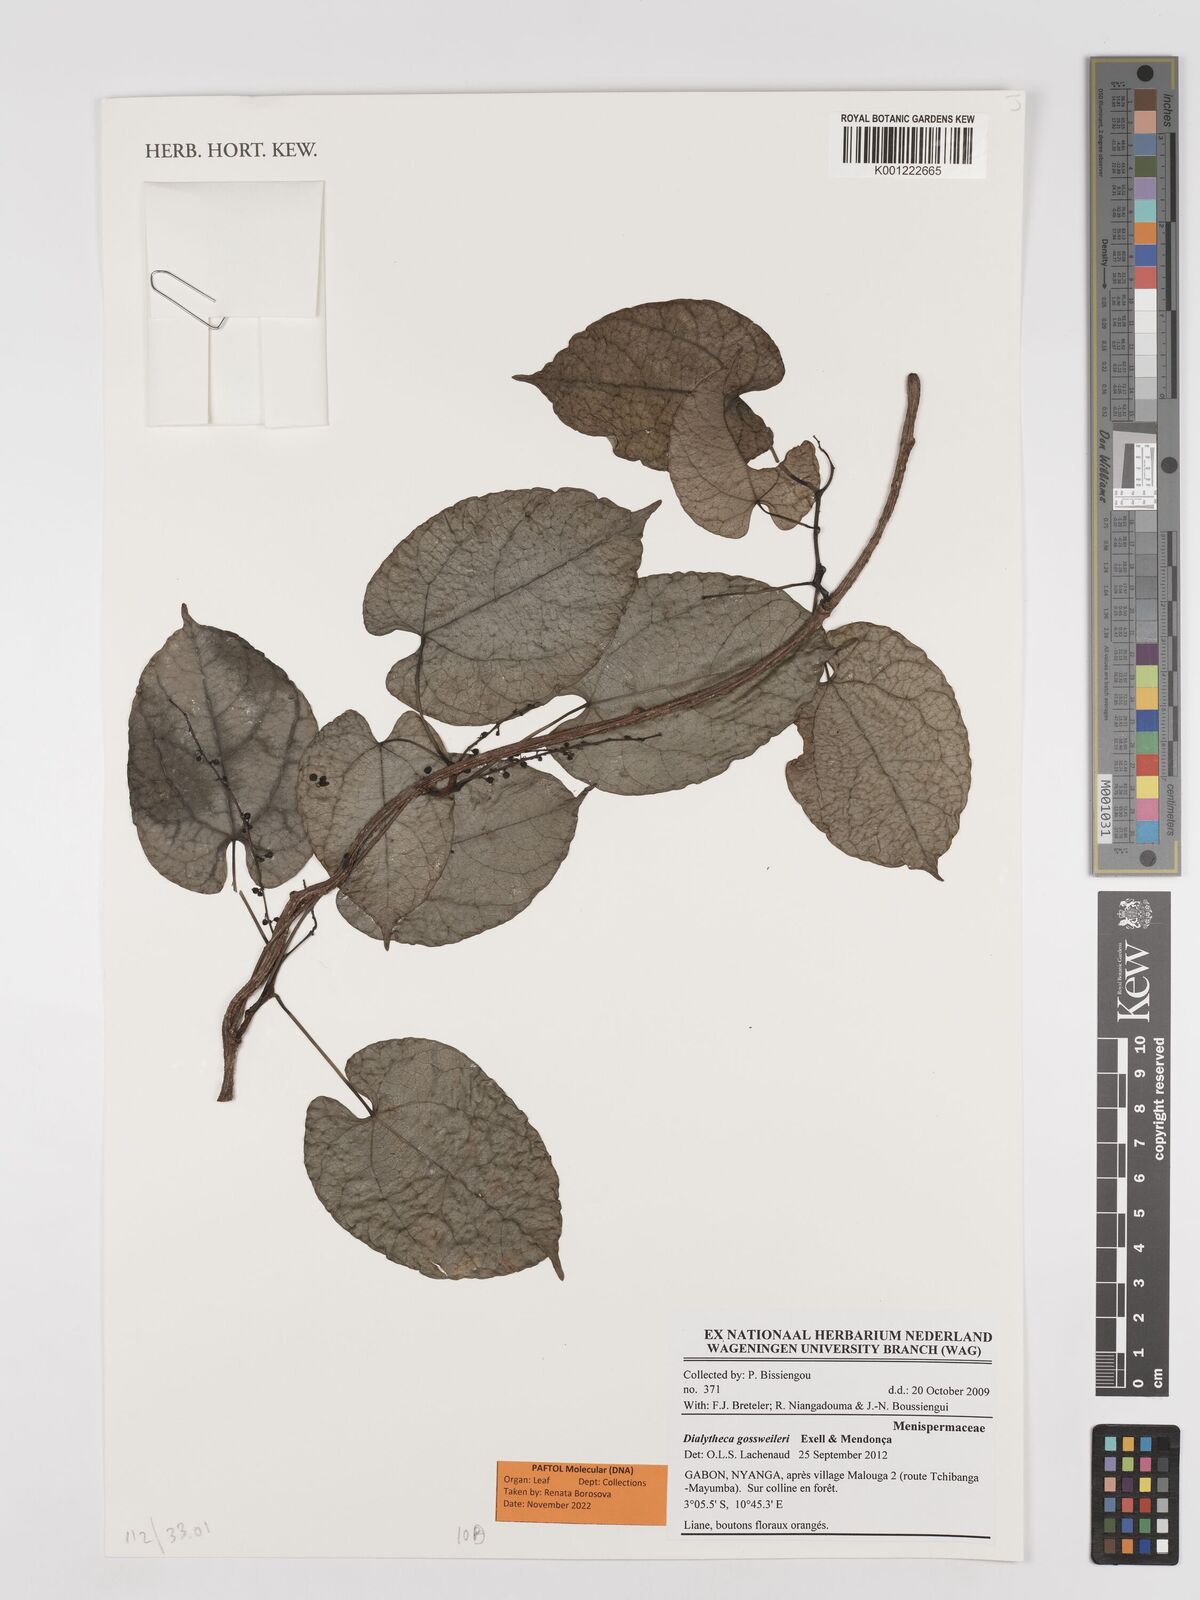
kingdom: Plantae
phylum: Tracheophyta
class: Magnoliopsida
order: Ranunculales
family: Menispermaceae
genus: Dialytheca
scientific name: Dialytheca gossweileri
